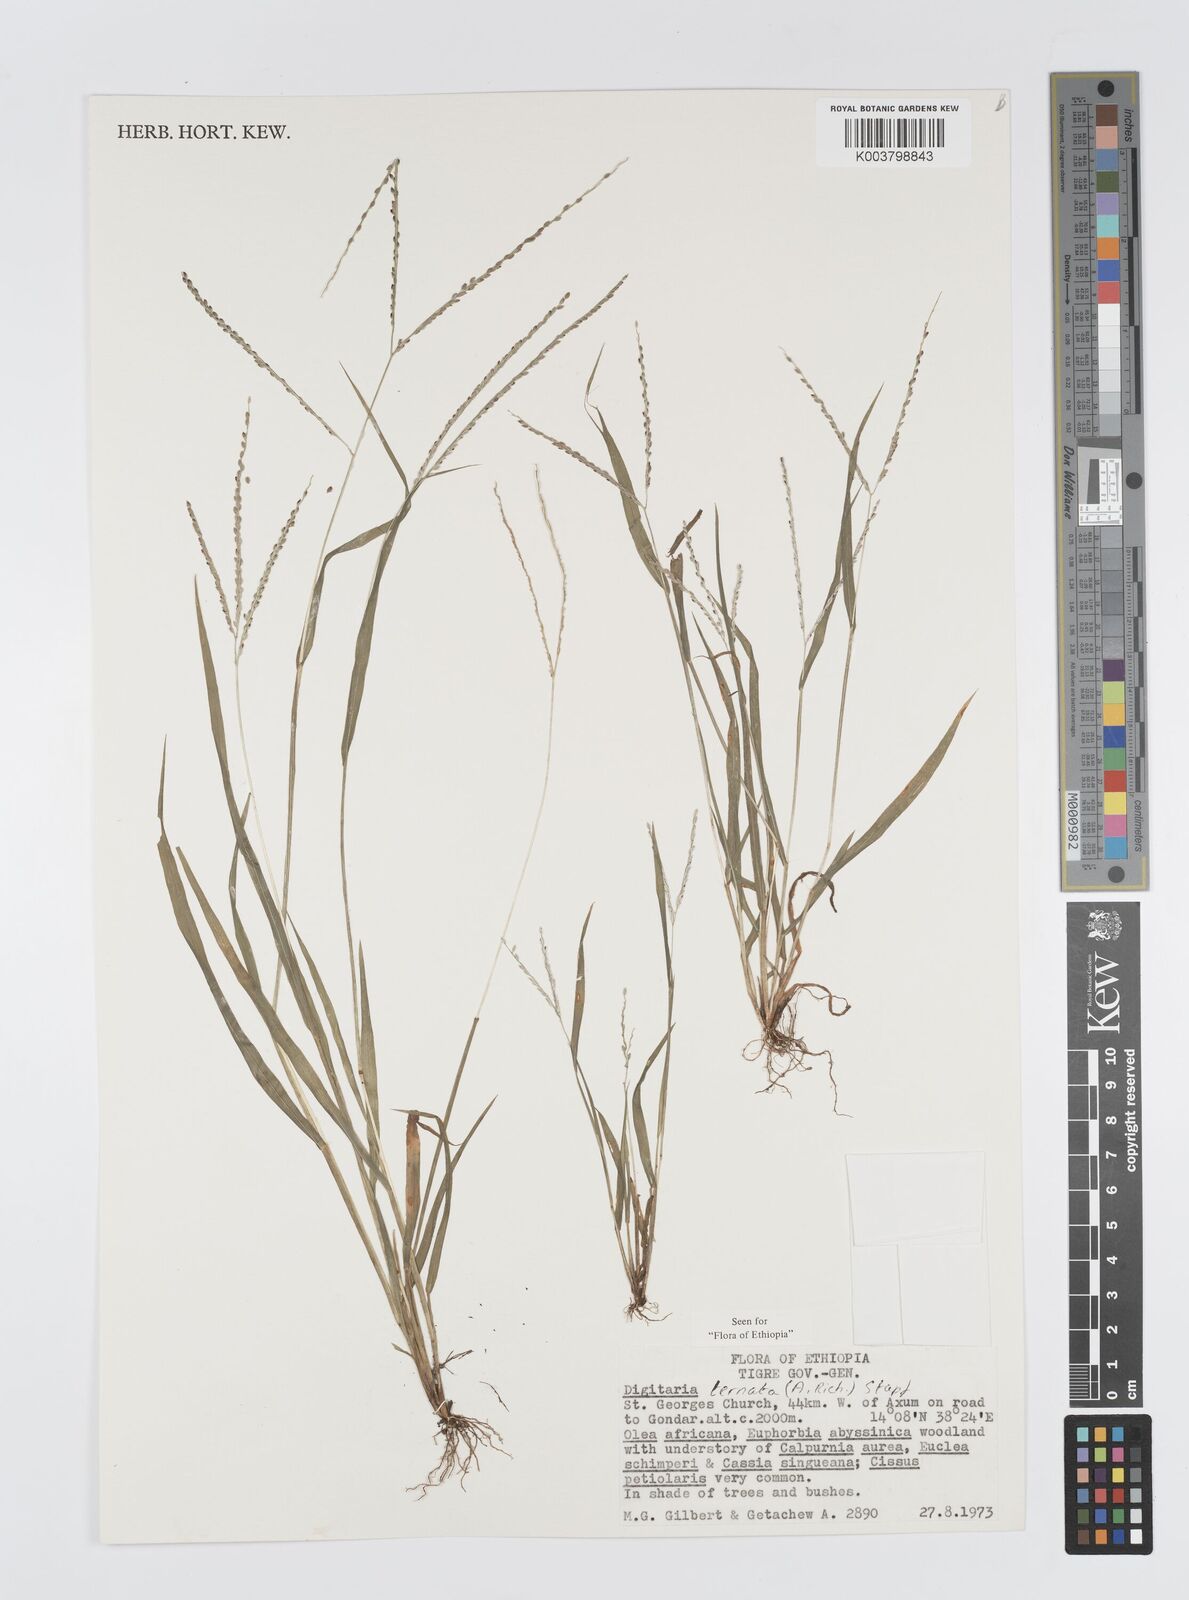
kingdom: Plantae
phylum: Tracheophyta
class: Liliopsida
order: Poales
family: Poaceae
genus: Digitaria
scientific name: Digitaria ternata
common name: Blackseed crabgrass
